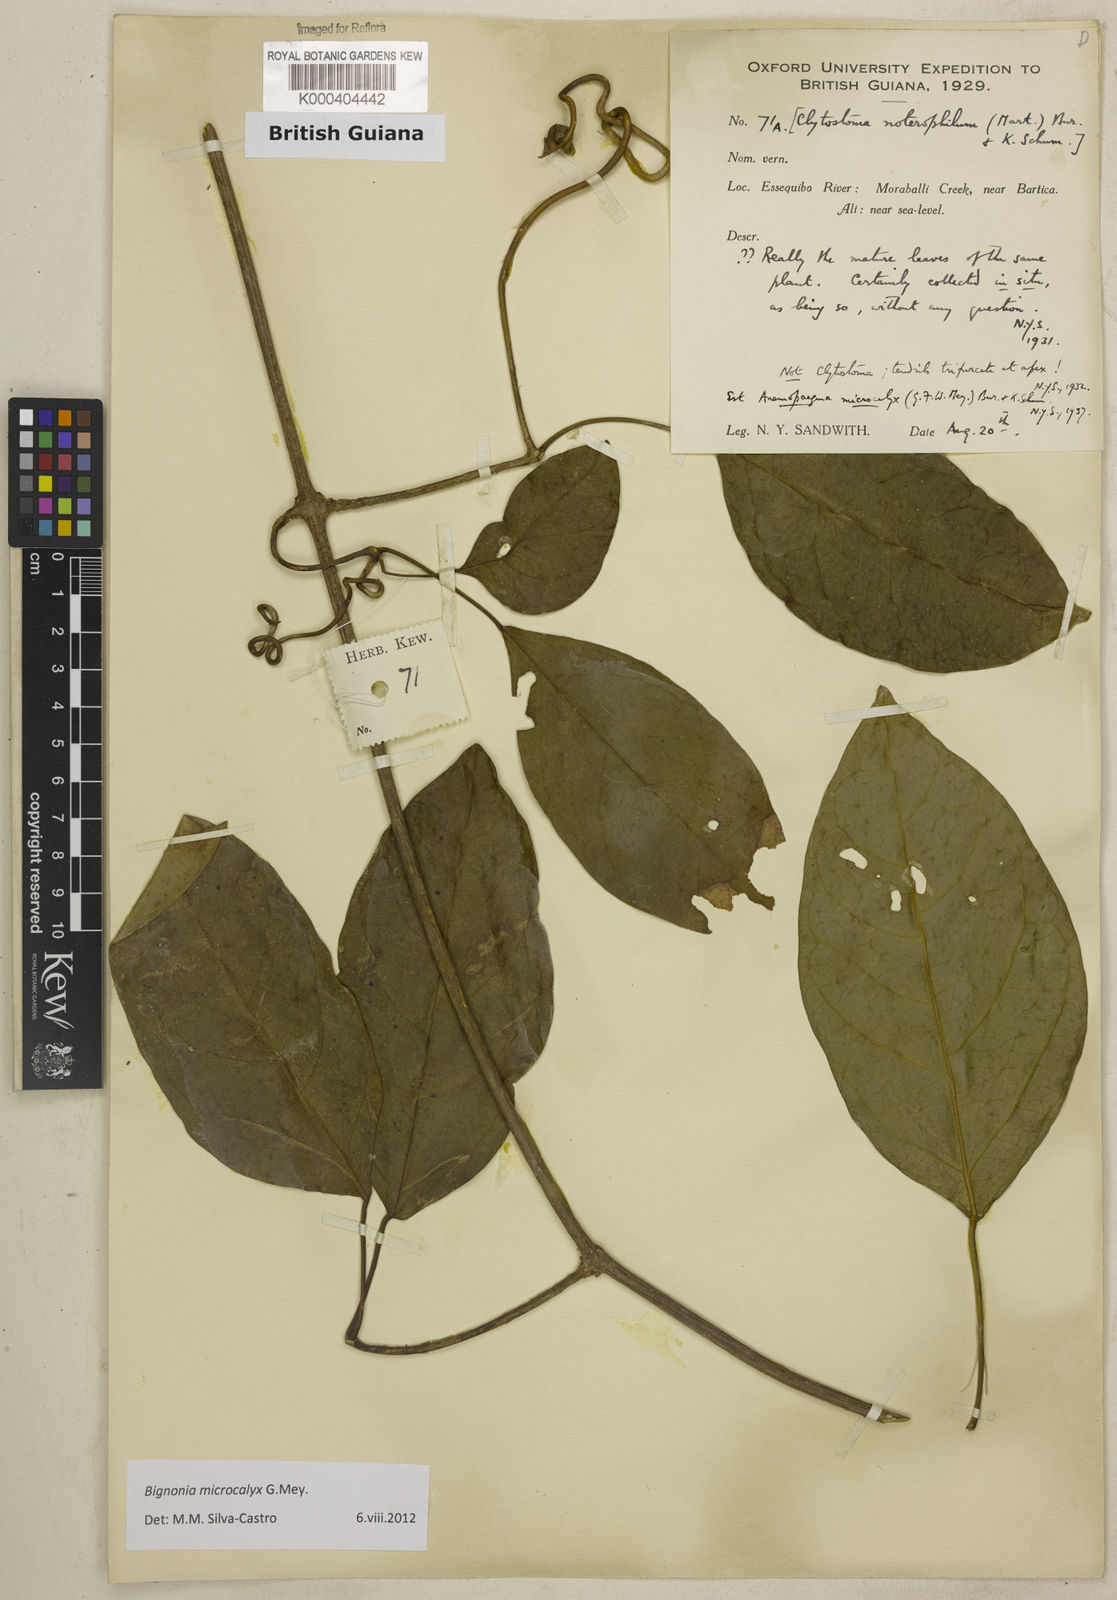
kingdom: Plantae
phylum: Tracheophyta
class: Magnoliopsida
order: Lamiales
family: Bignoniaceae
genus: Bignonia
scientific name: Bignonia microcalyx
